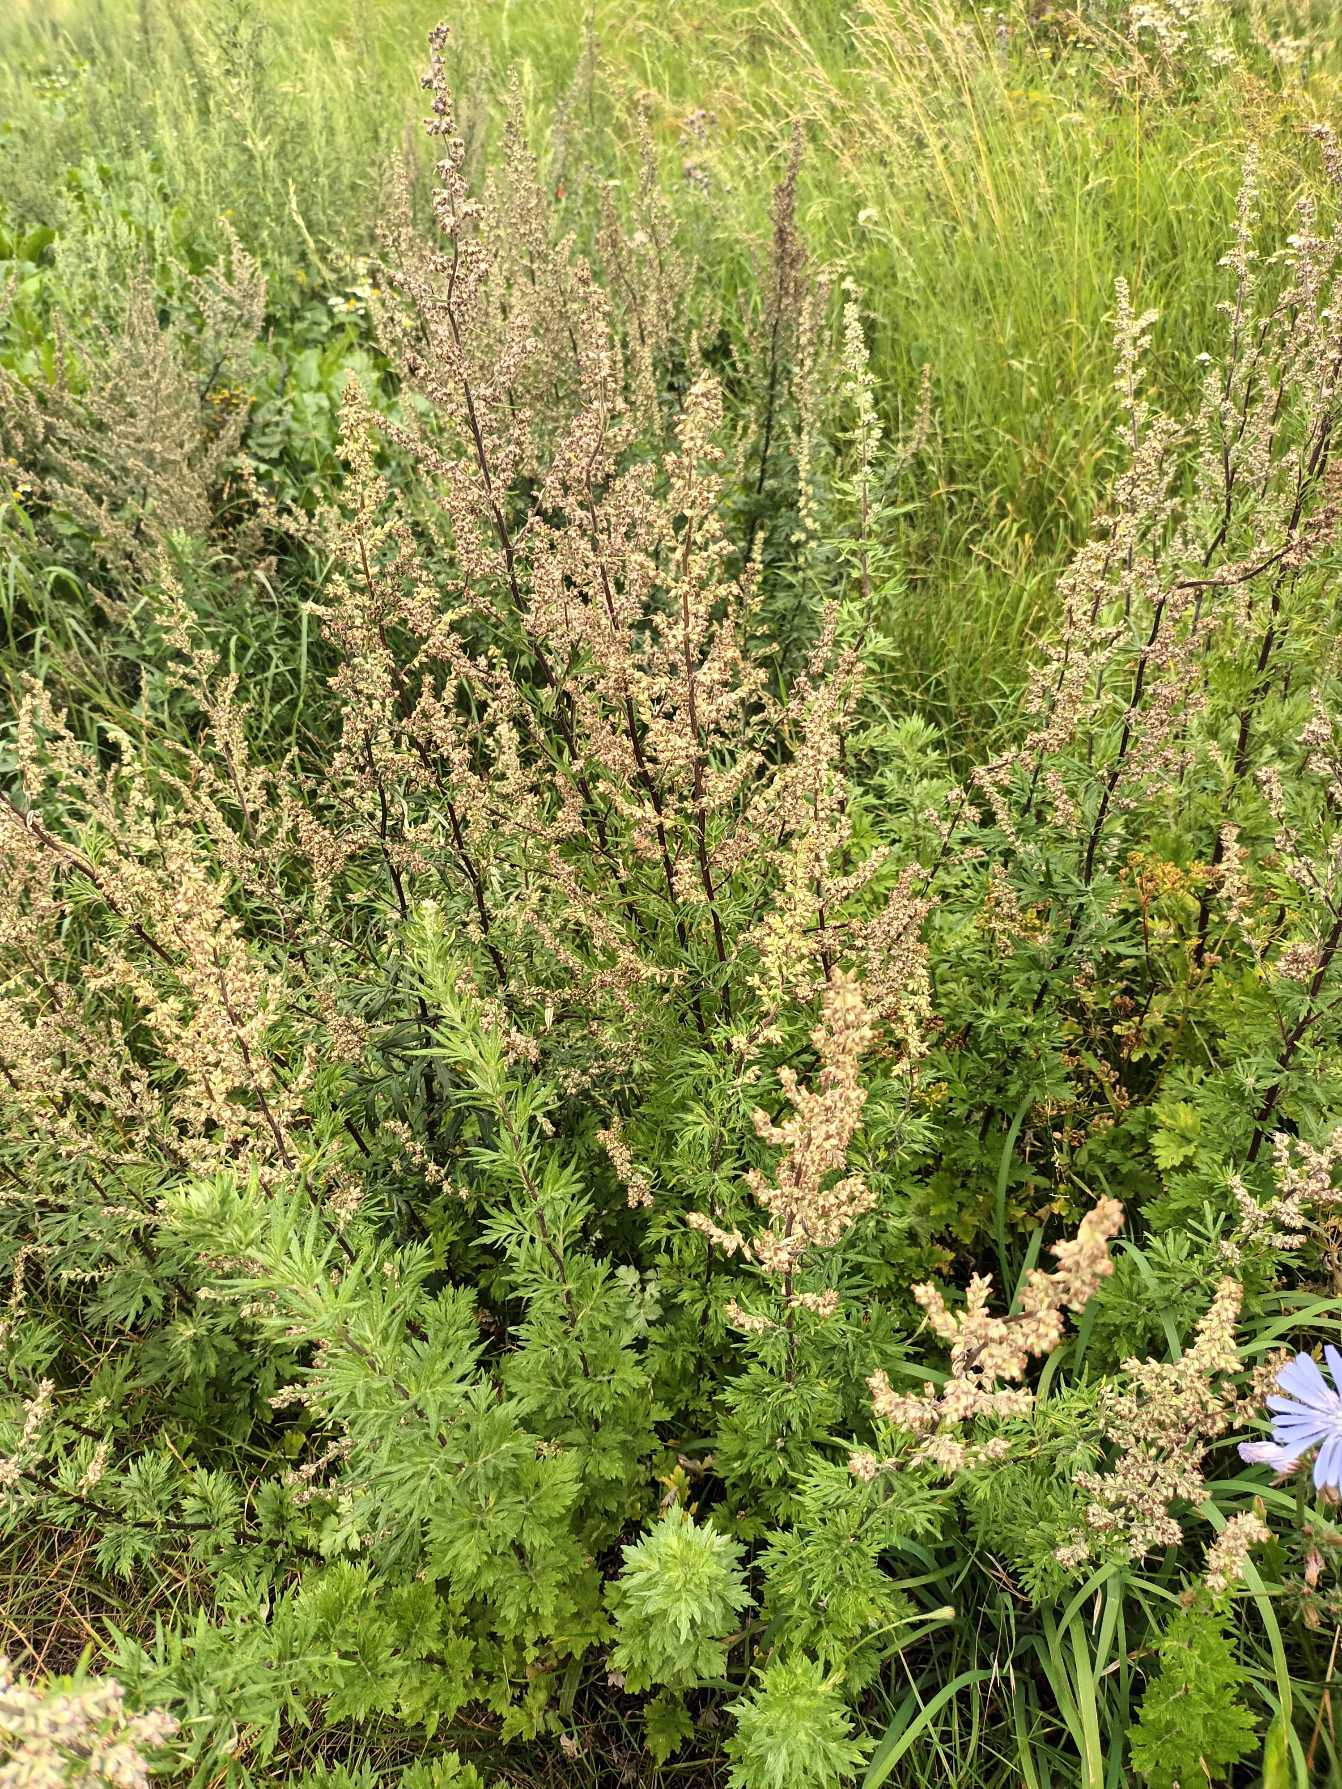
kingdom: Plantae
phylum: Tracheophyta
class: Magnoliopsida
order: Asterales
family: Asteraceae
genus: Artemisia
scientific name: Artemisia vulgaris
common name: Grå-bynke
